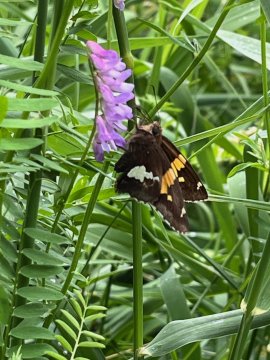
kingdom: Animalia
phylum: Arthropoda
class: Insecta
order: Lepidoptera
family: Hesperiidae
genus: Epargyreus
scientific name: Epargyreus clarus
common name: Silver-spotted Skipper
